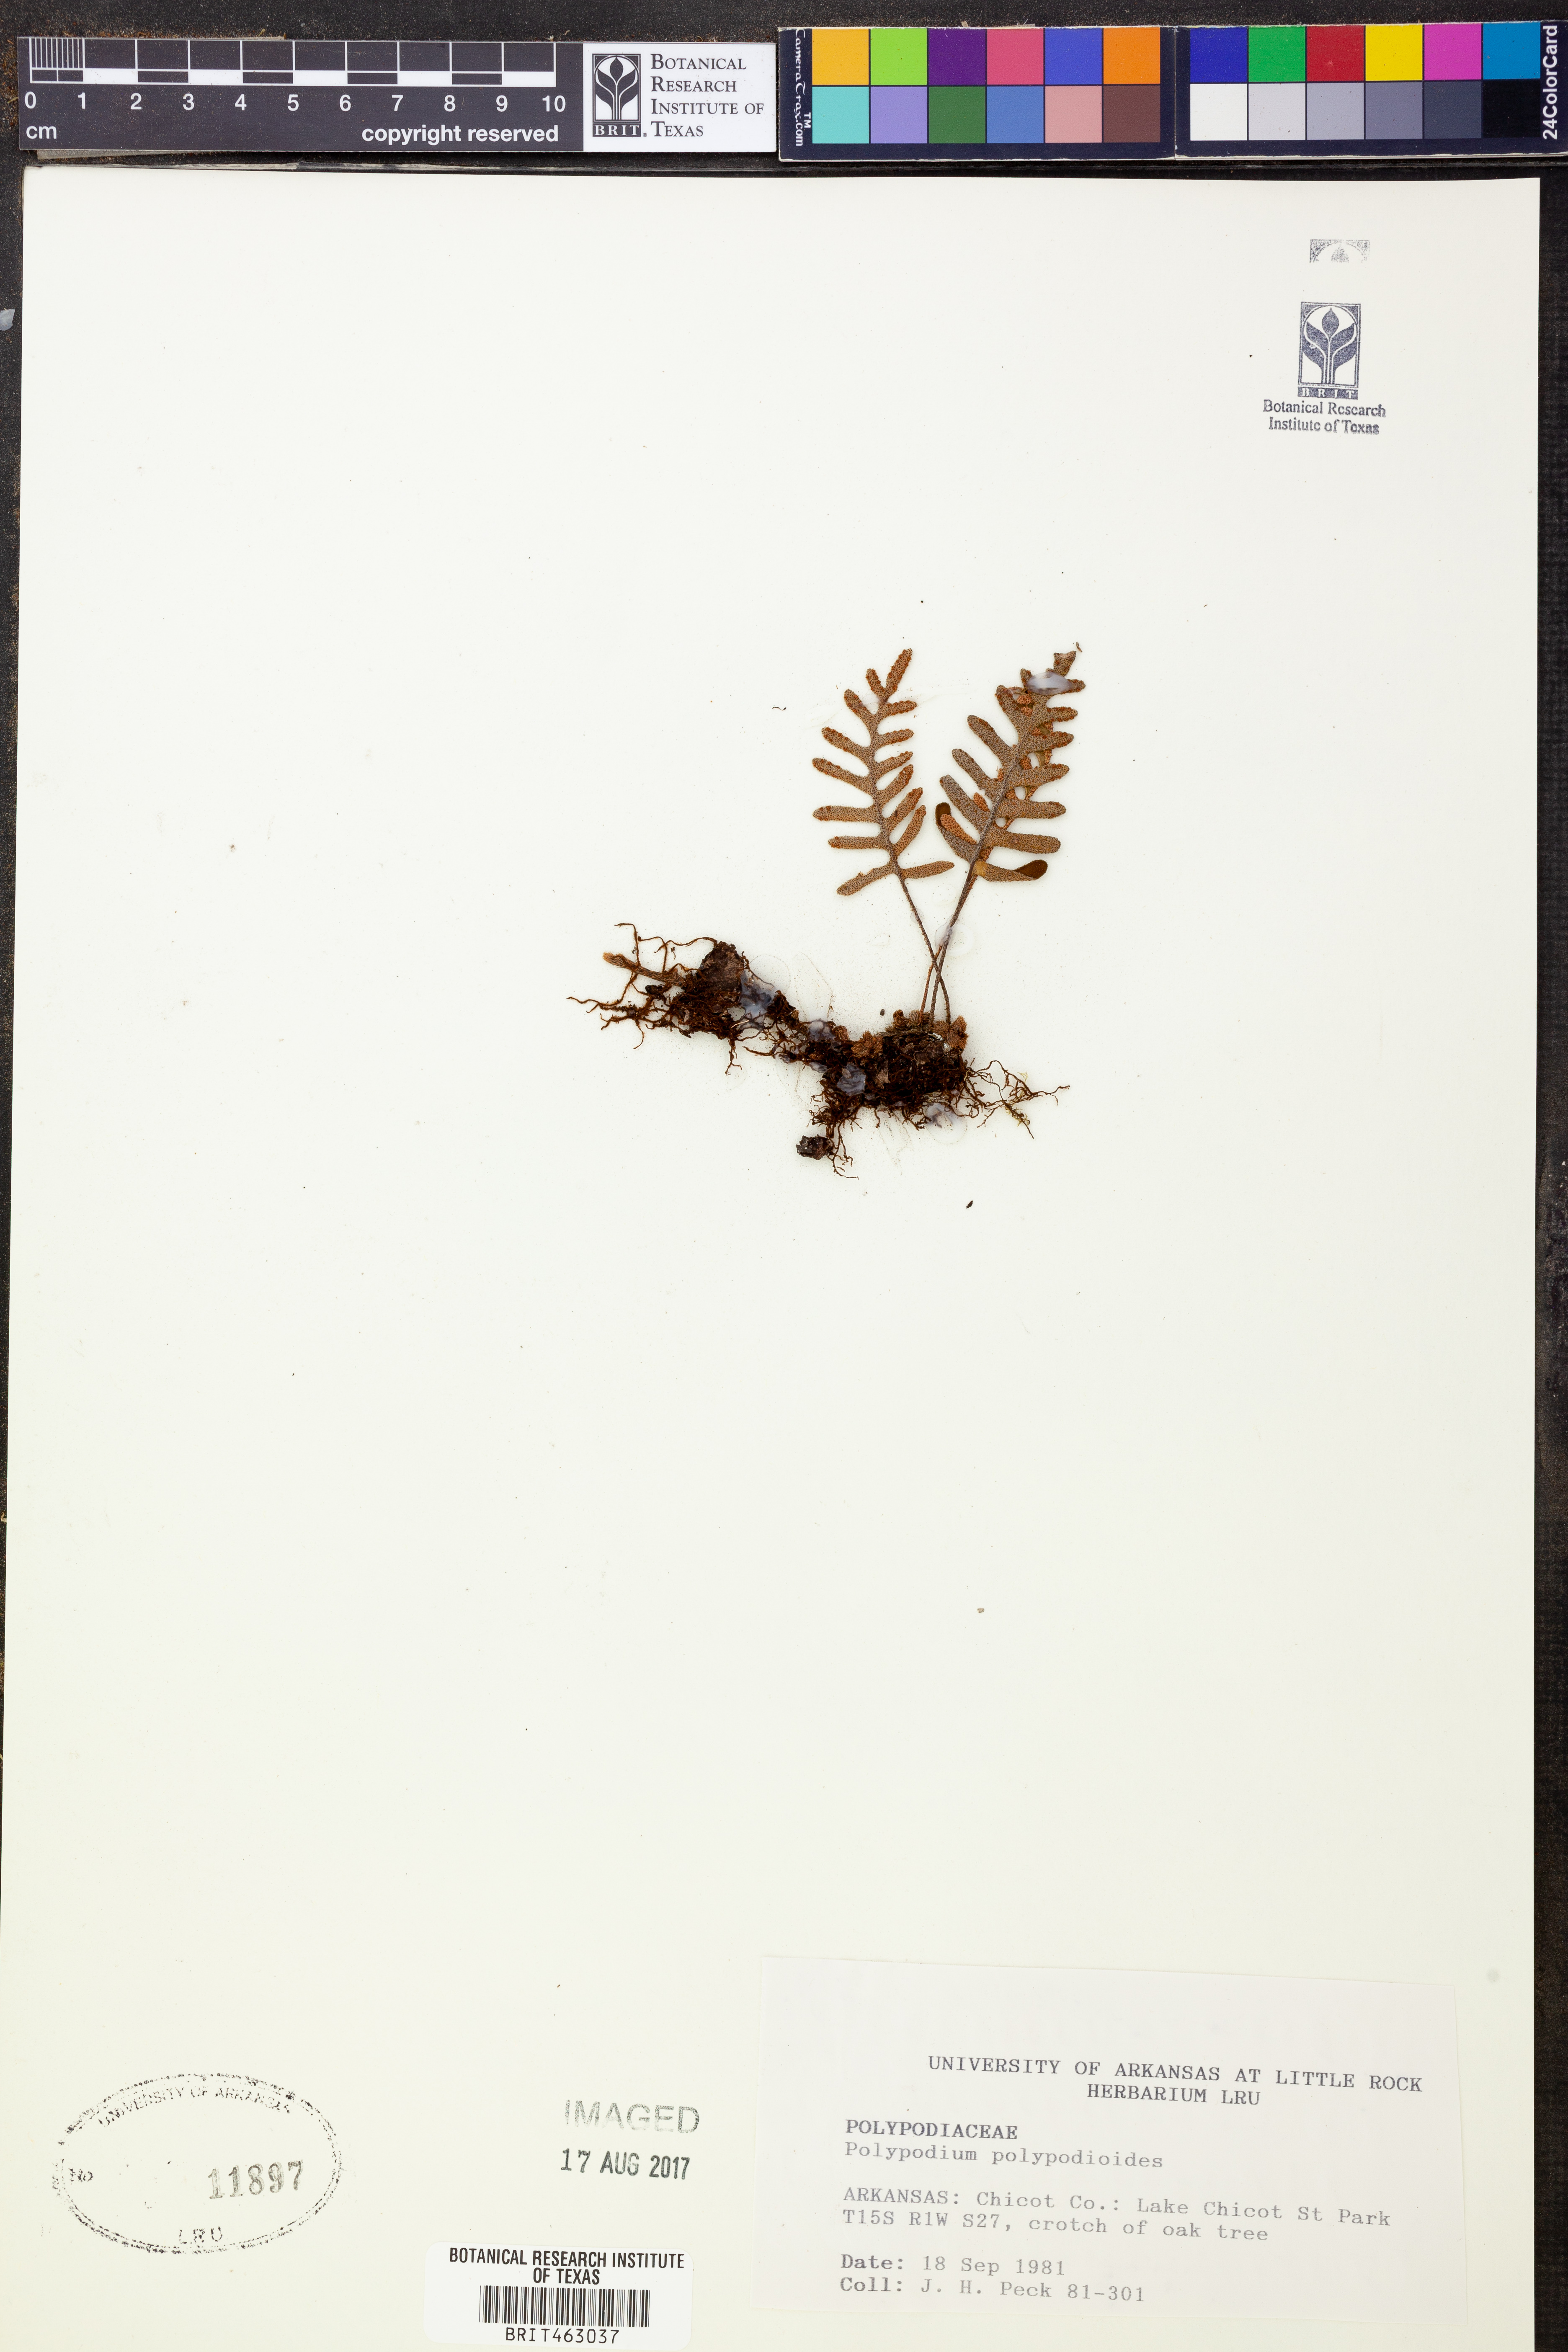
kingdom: Plantae
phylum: Tracheophyta
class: Polypodiopsida
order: Polypodiales
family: Polypodiaceae
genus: Pleopeltis
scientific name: Pleopeltis polypodioides
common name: Resurrection fern
